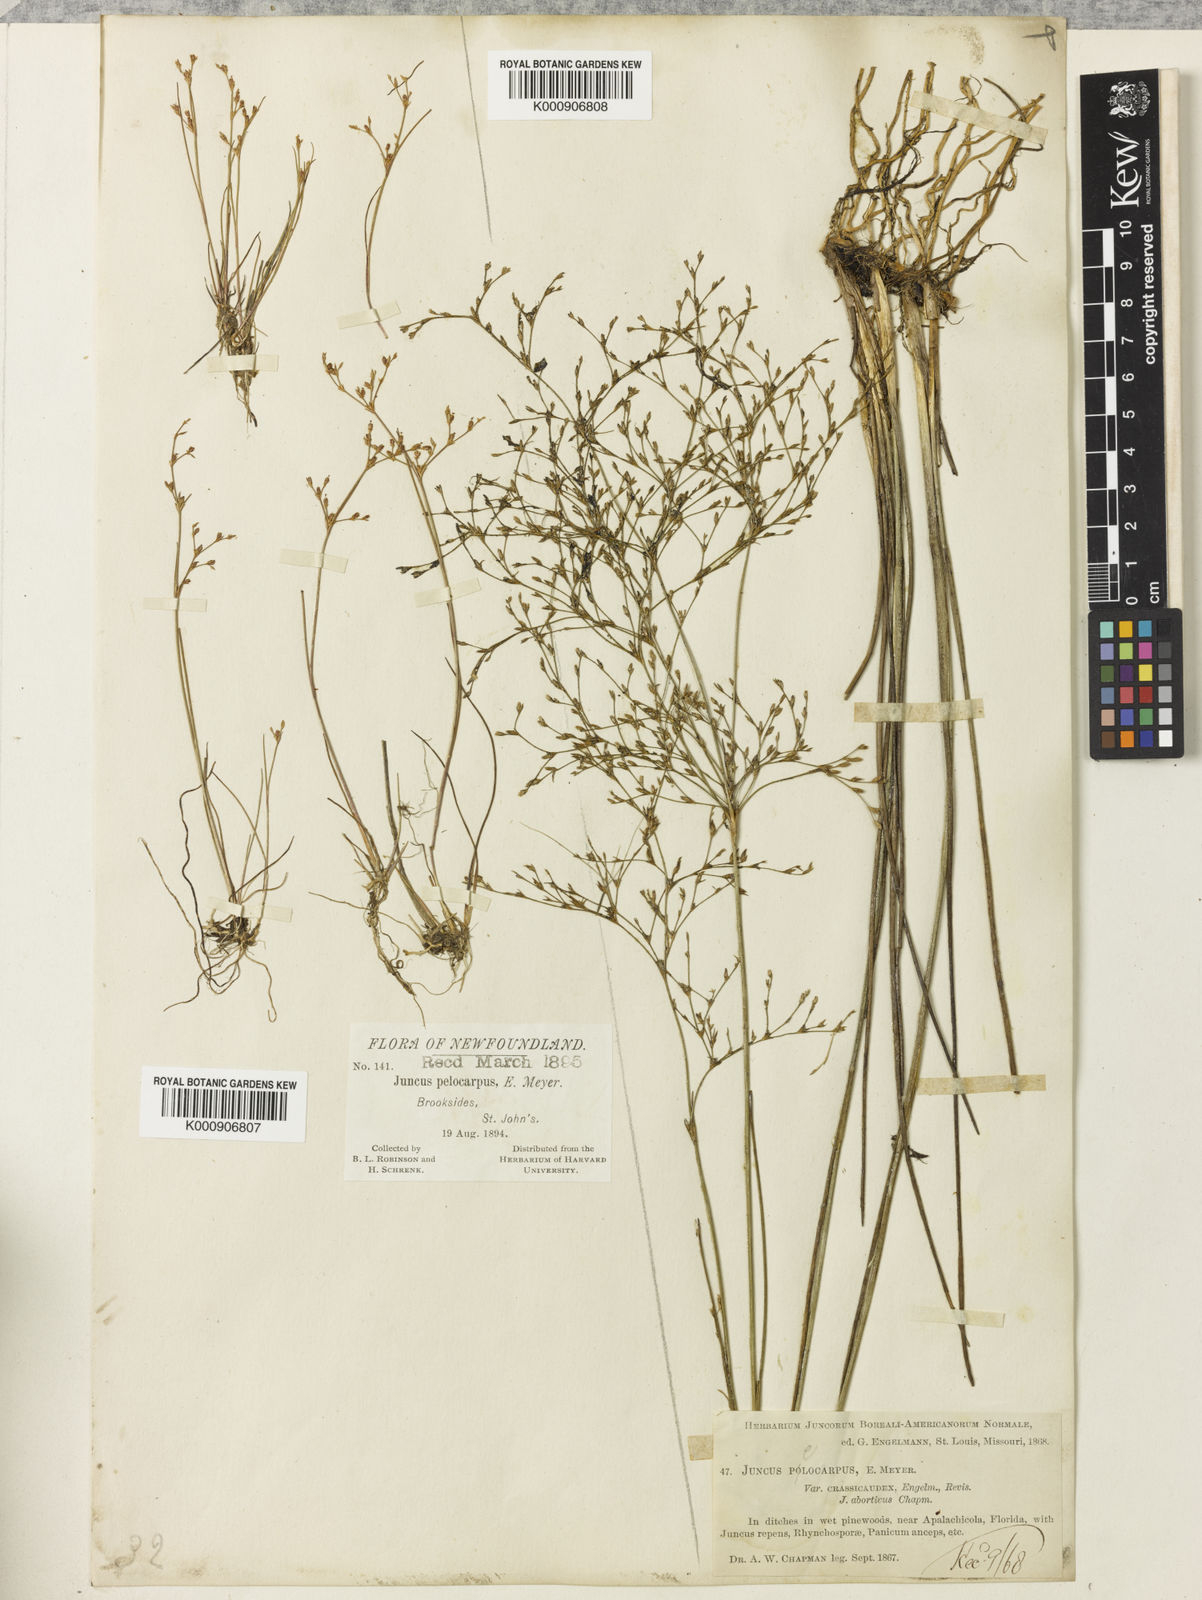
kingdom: Plantae
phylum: Tracheophyta
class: Liliopsida
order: Poales
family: Juncaceae
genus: Juncus
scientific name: Juncus pelocarpus
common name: Brown-fruited rush
